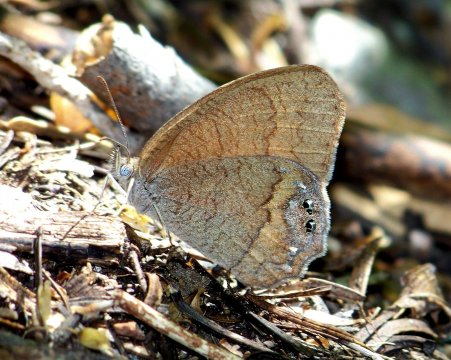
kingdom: Animalia
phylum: Arthropoda
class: Insecta
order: Lepidoptera
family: Nymphalidae
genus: Euptychia
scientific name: Euptychia pyracmon
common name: Nabokov's Satyr
